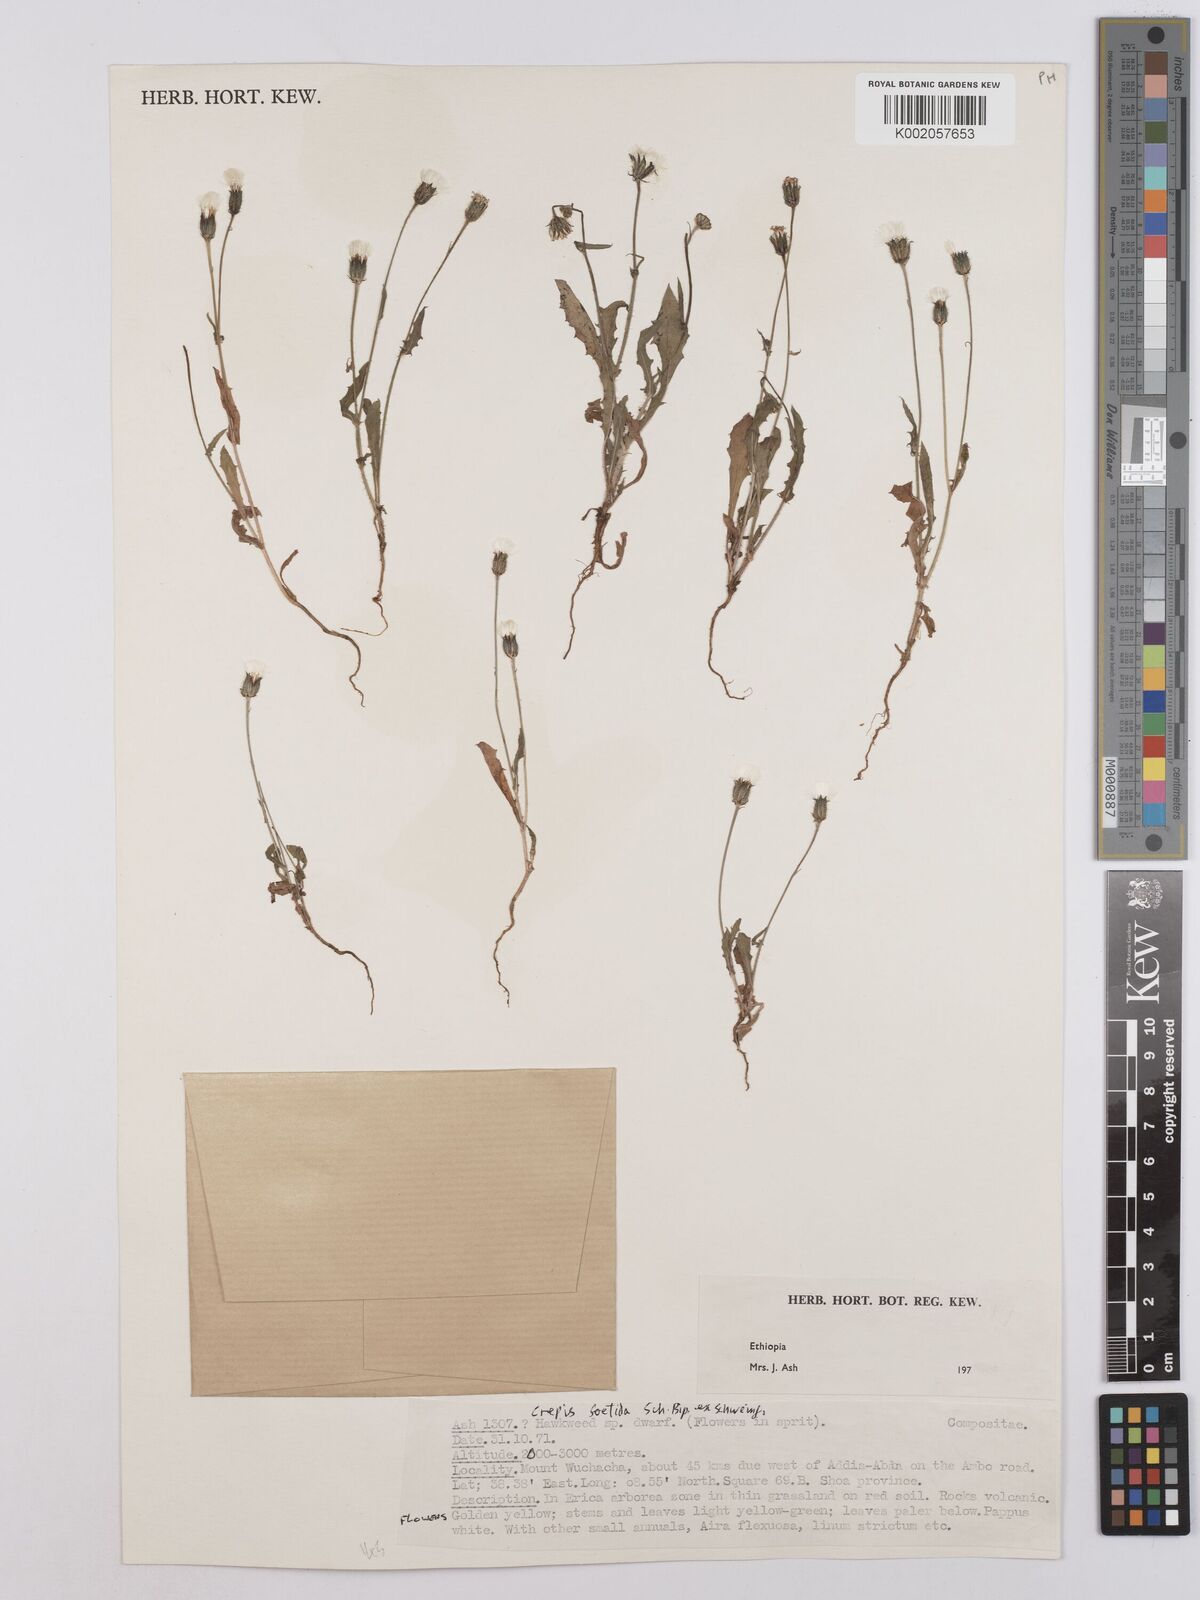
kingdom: Plantae
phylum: Tracheophyta
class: Magnoliopsida
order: Asterales
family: Asteraceae
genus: Crepis
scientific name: Crepis foetida
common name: Stinking hawk's-beard
